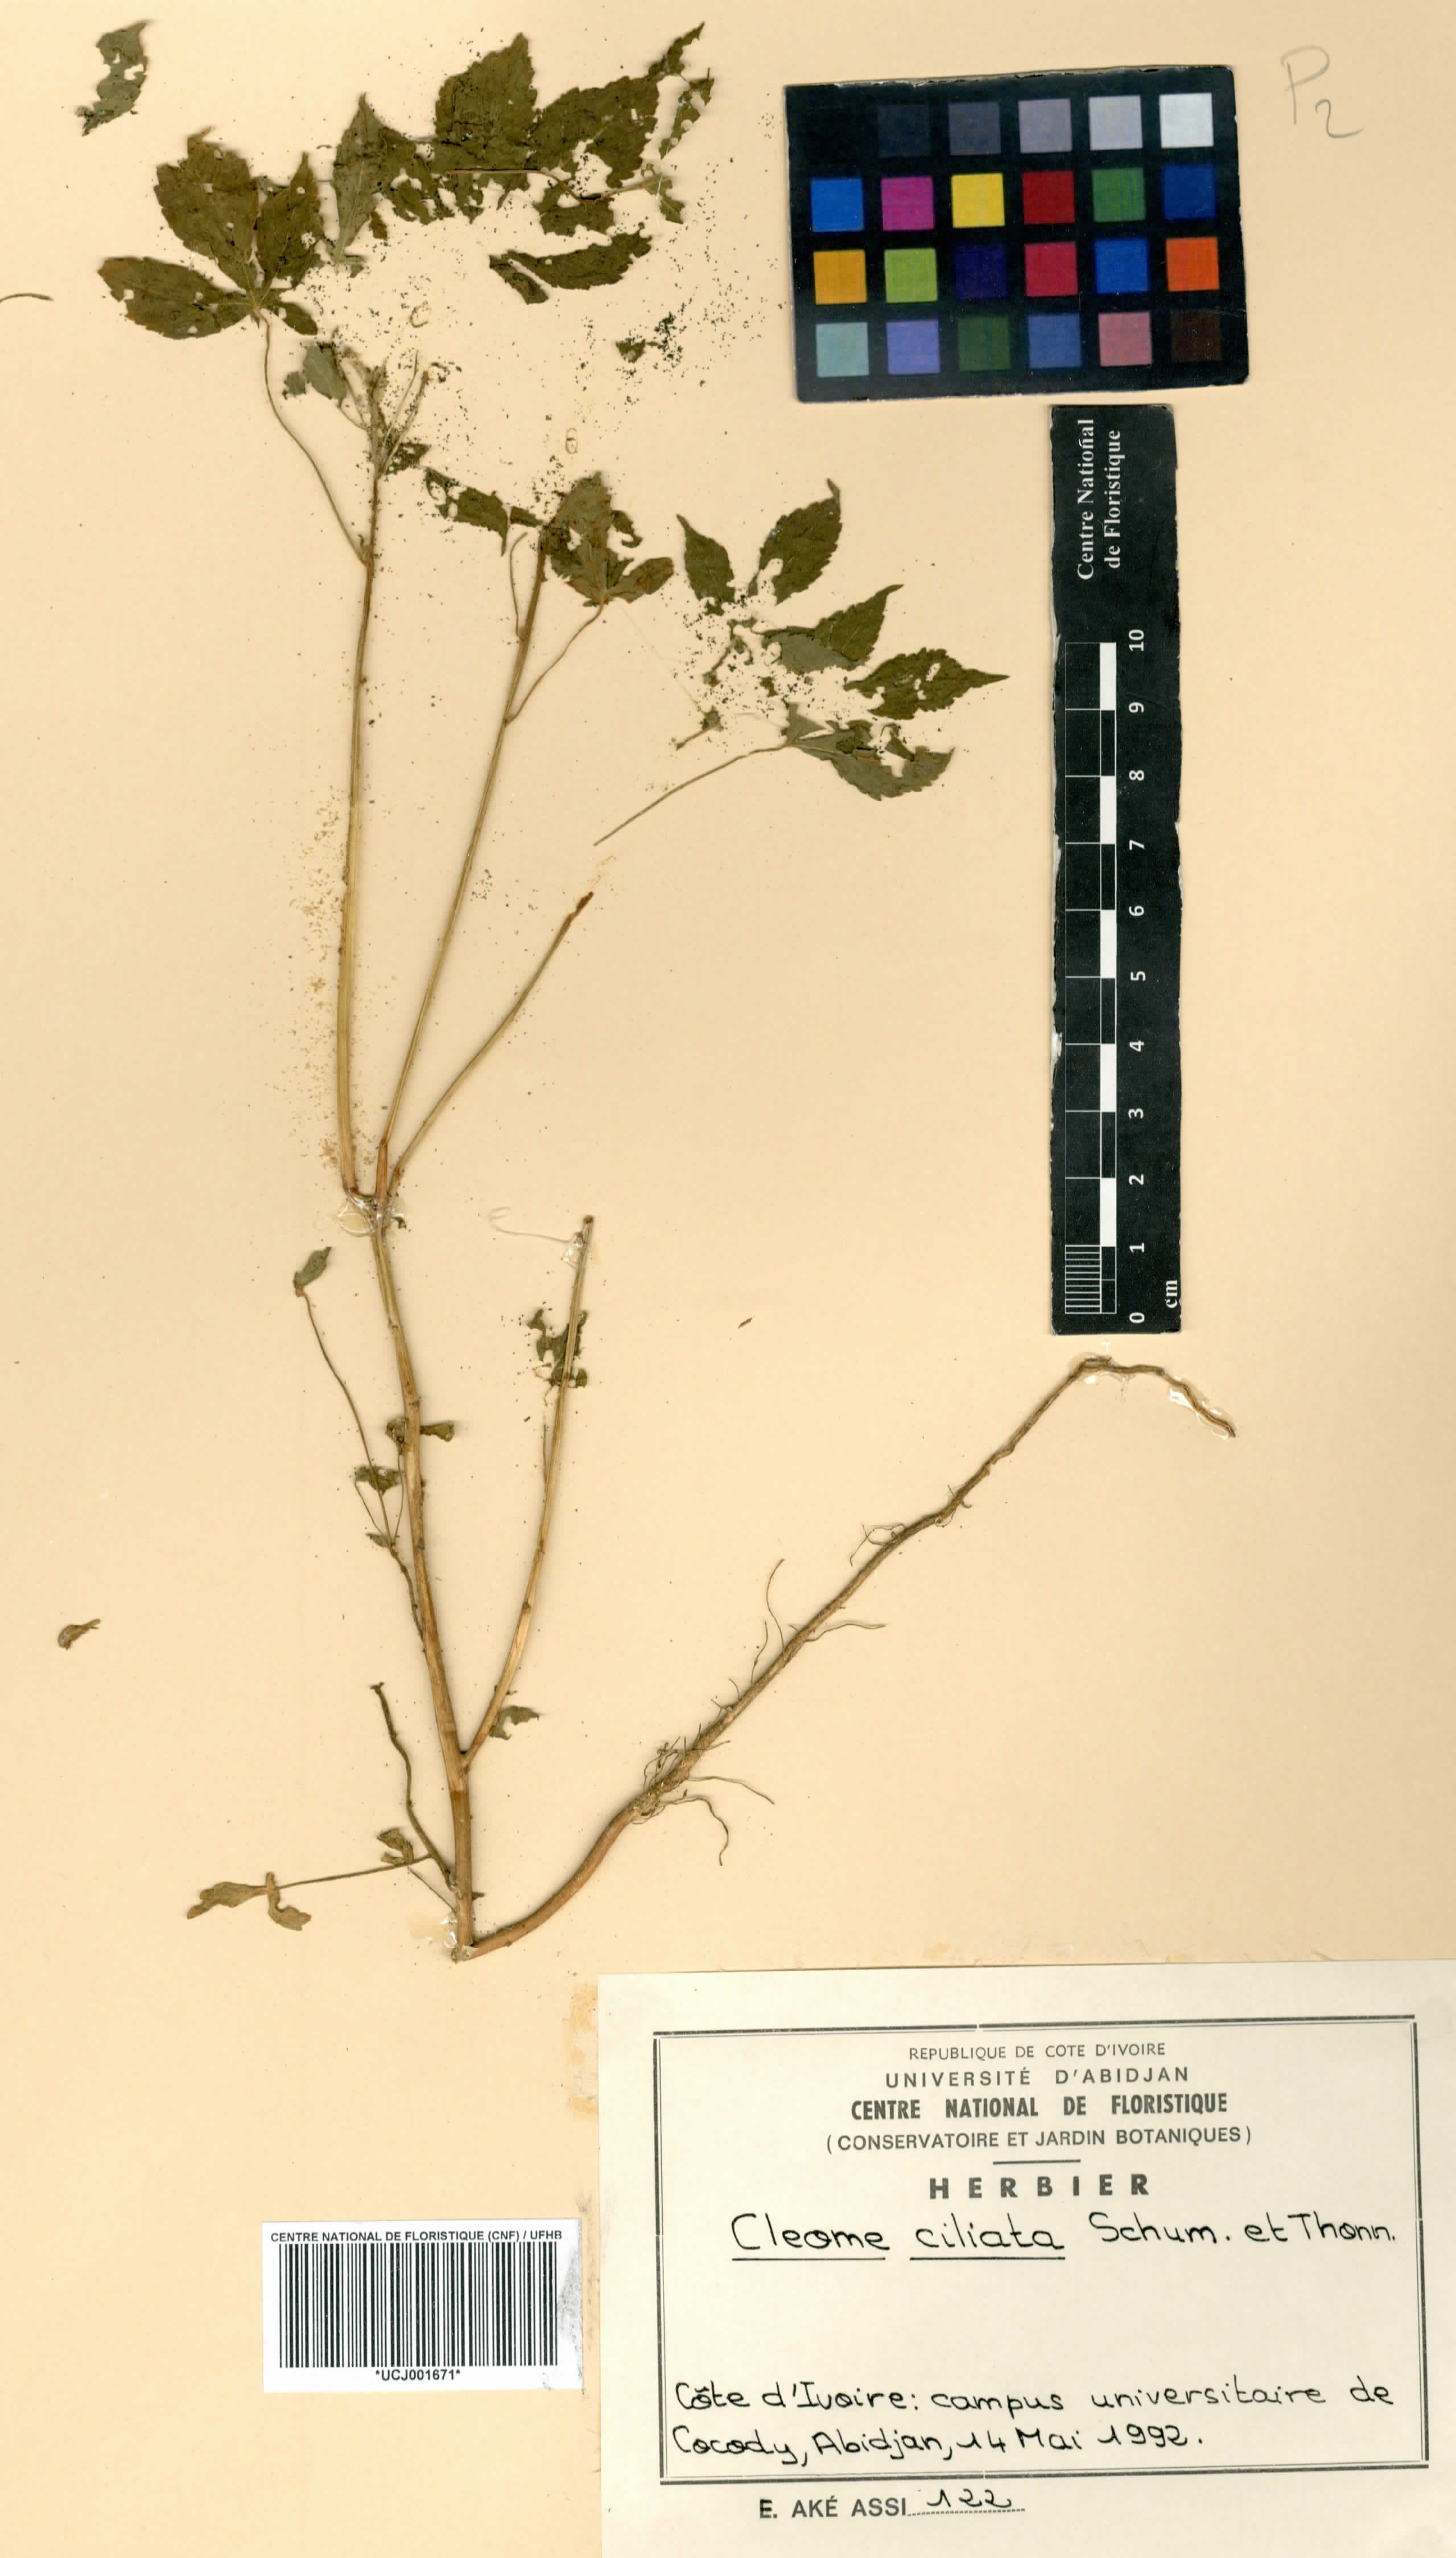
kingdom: Plantae
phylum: Tracheophyta
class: Magnoliopsida
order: Brassicales
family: Cleomaceae
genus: Sieruela
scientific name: Sieruela rutidosperma
